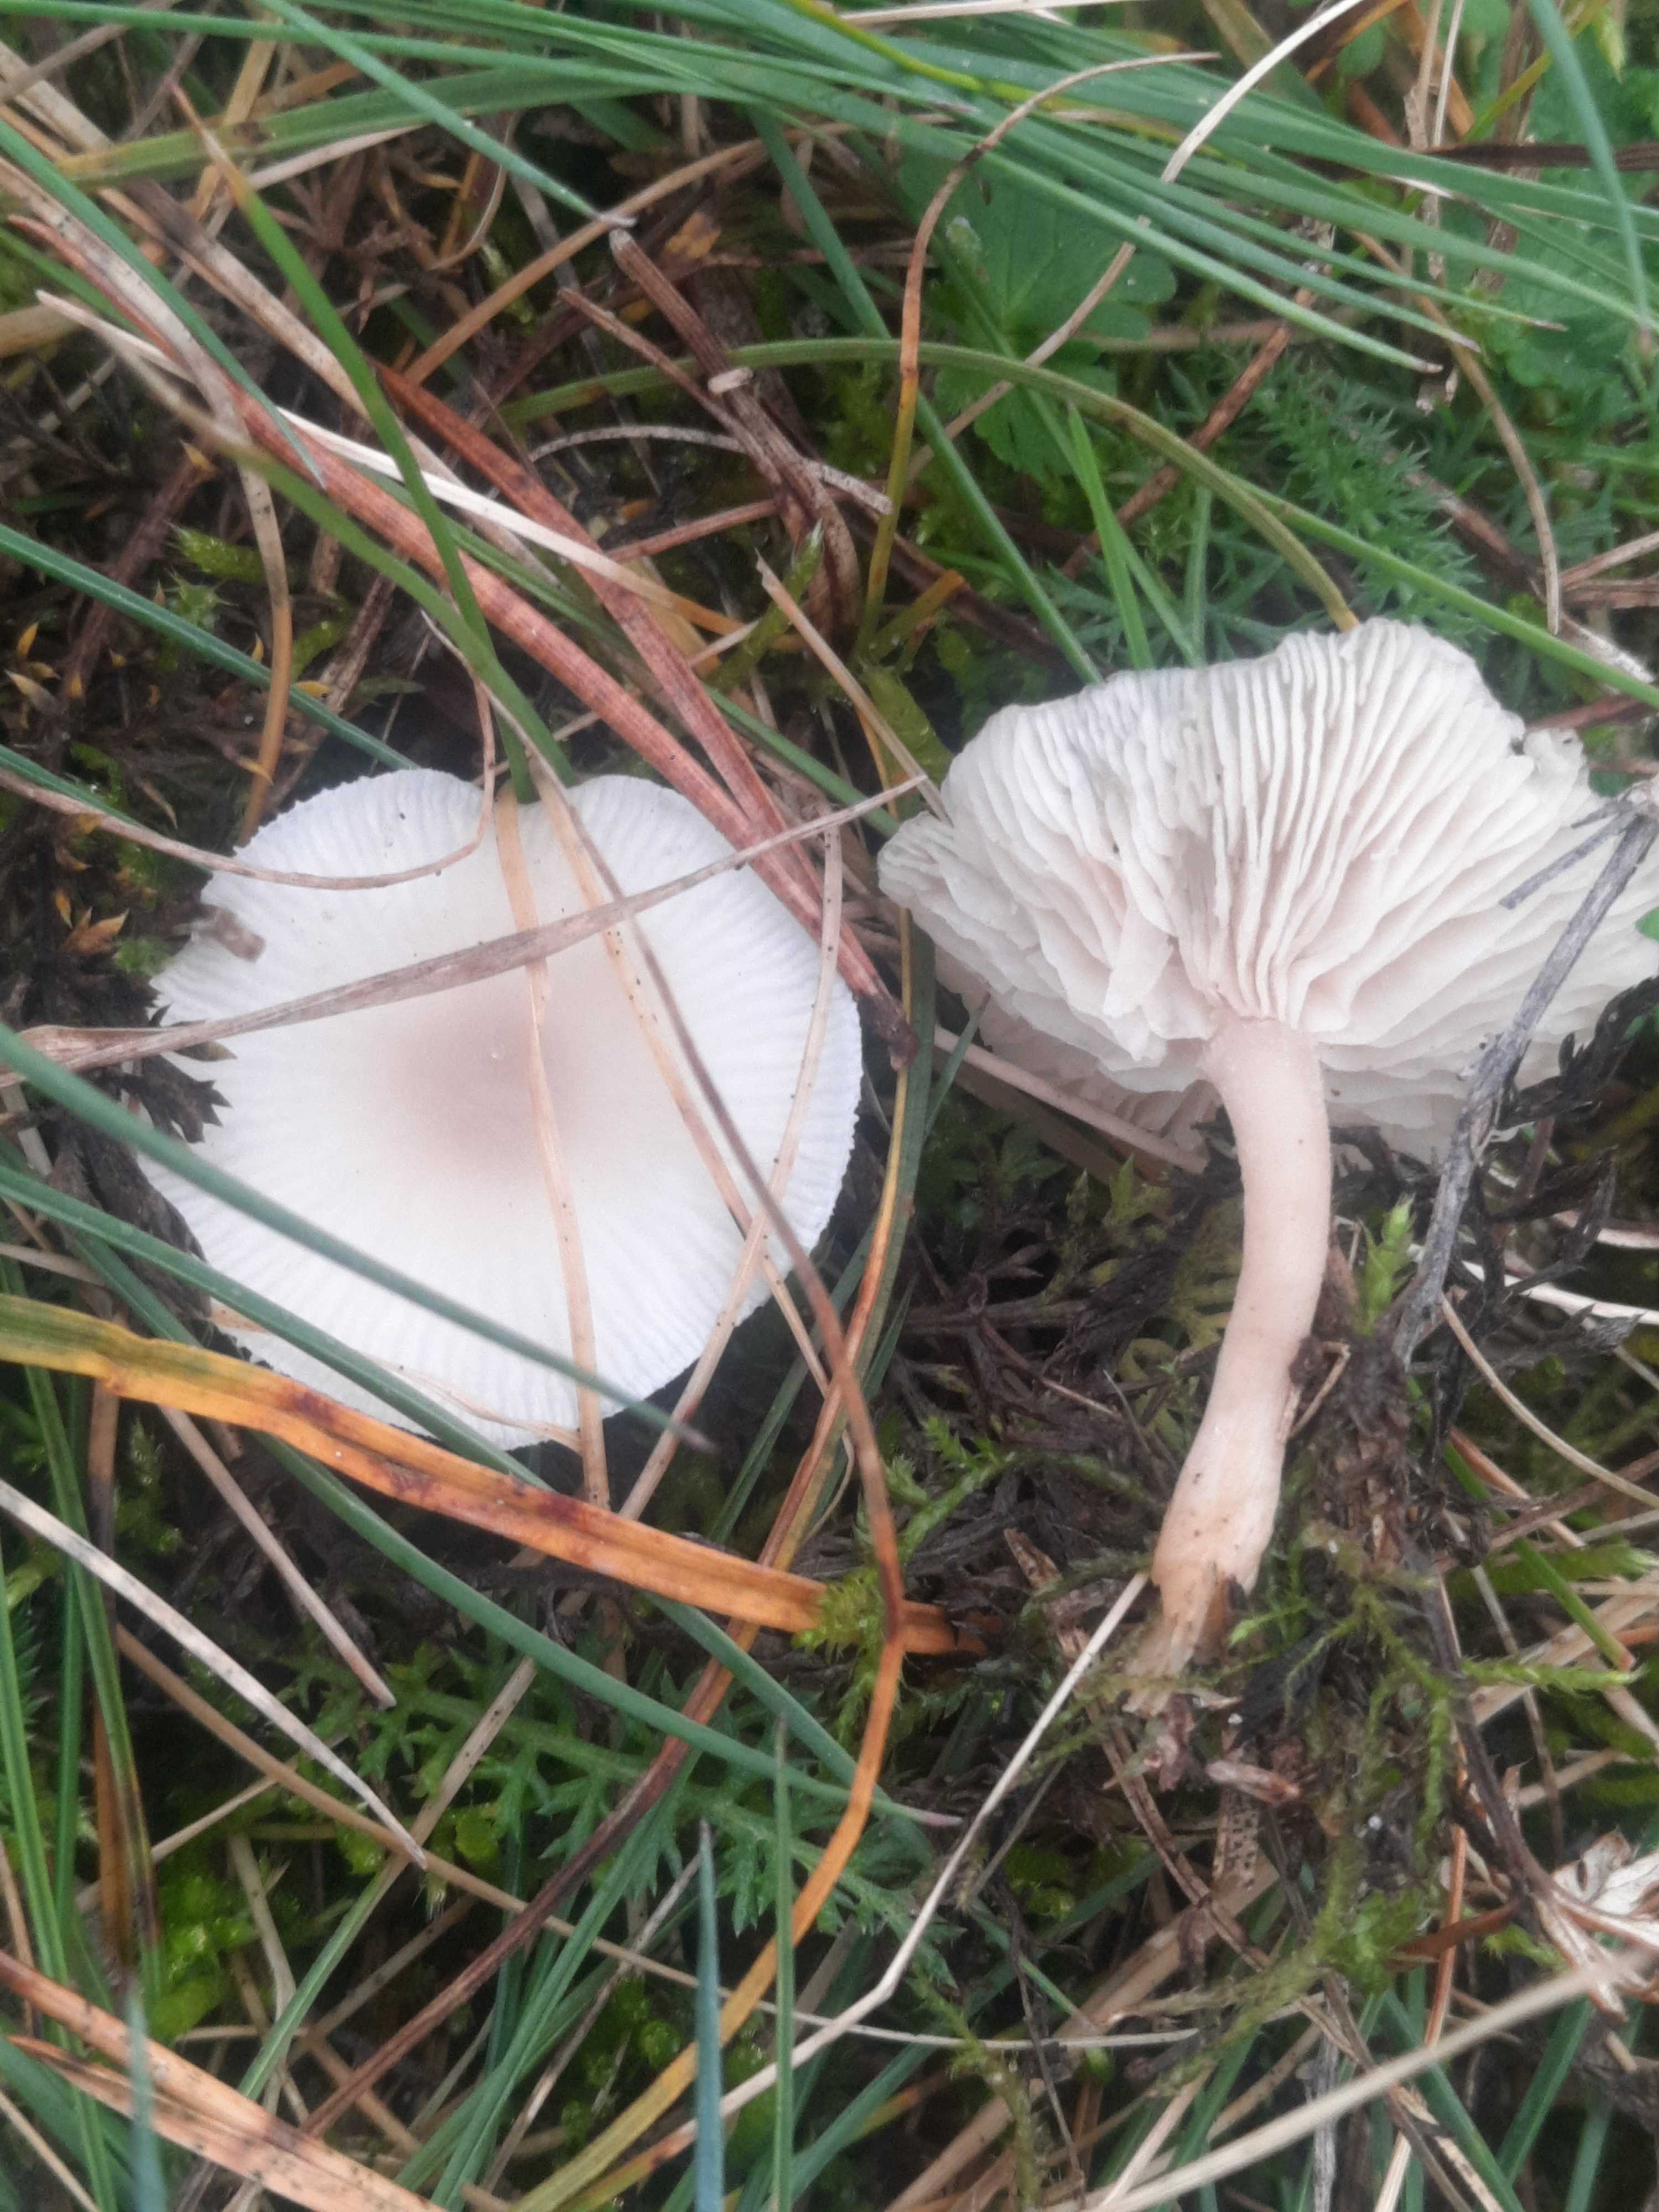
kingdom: Fungi
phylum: Basidiomycota
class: Agaricomycetes
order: Agaricales
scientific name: Agaricales
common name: champignonordenen
